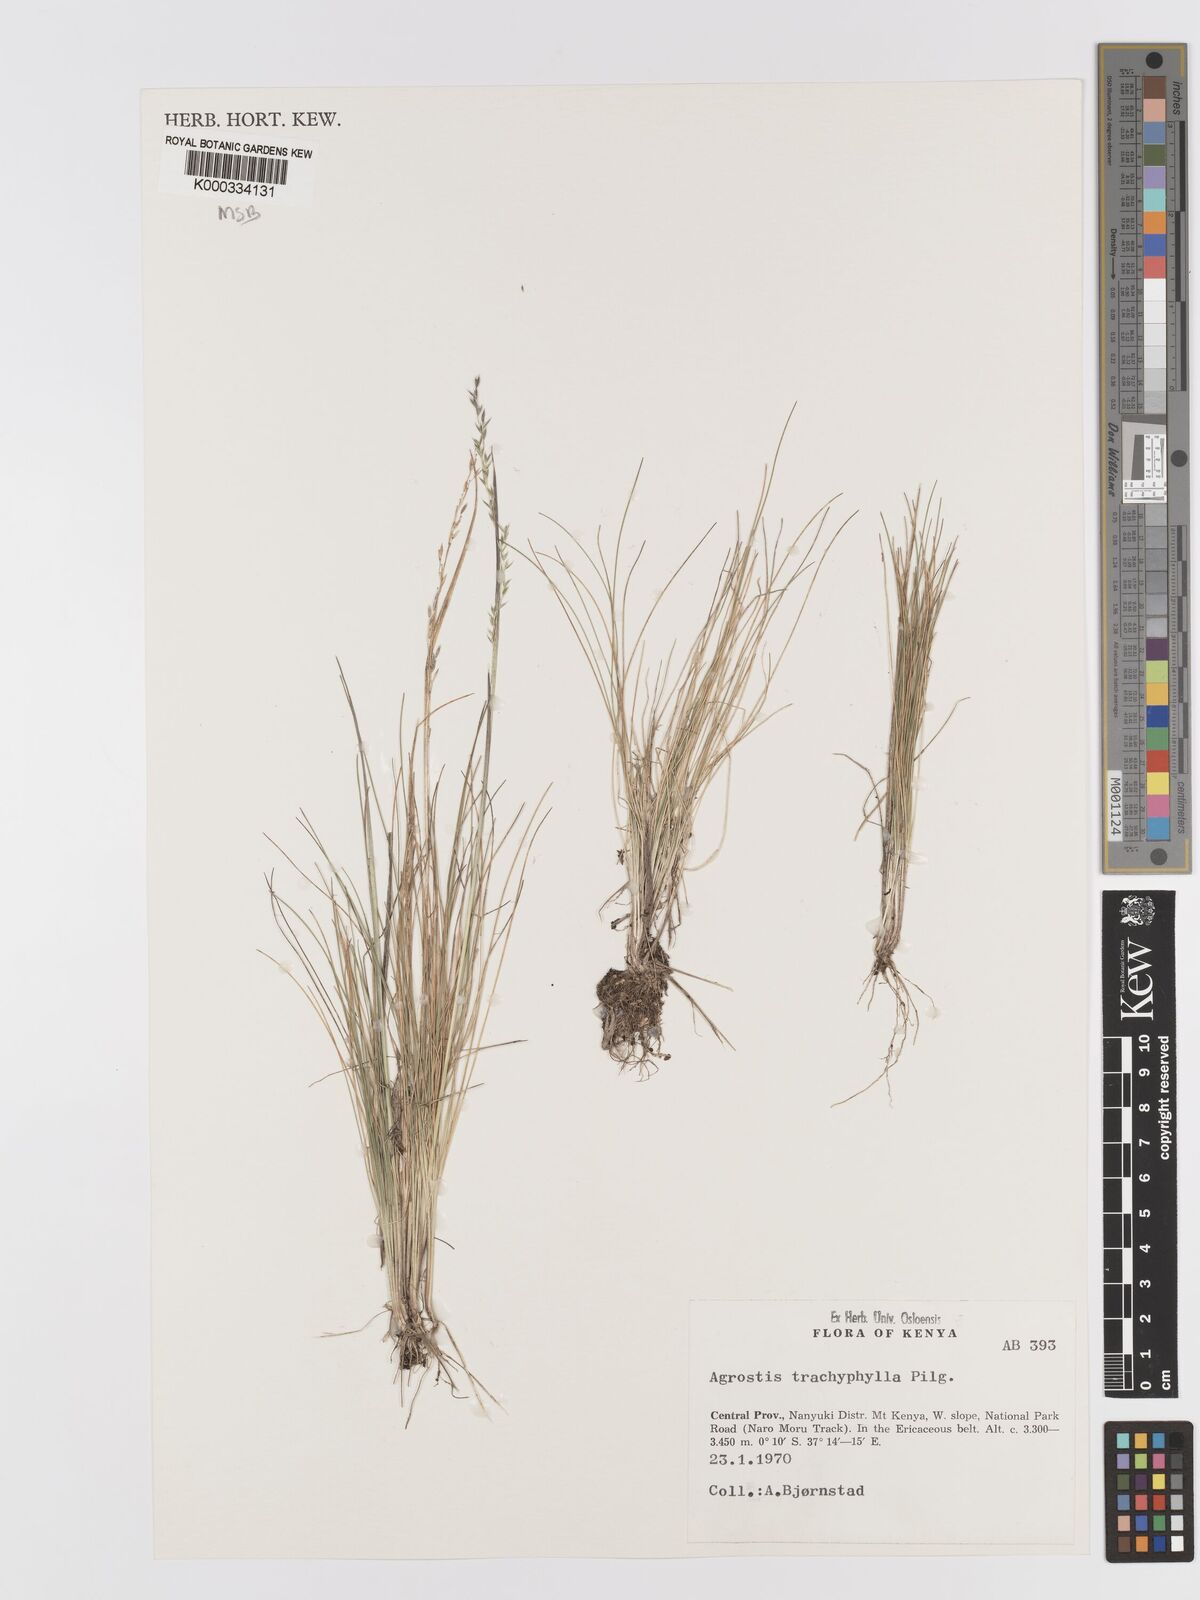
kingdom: Plantae
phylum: Tracheophyta
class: Liliopsida
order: Poales
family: Poaceae
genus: Agrostis
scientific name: Agrostis trachyphylla
